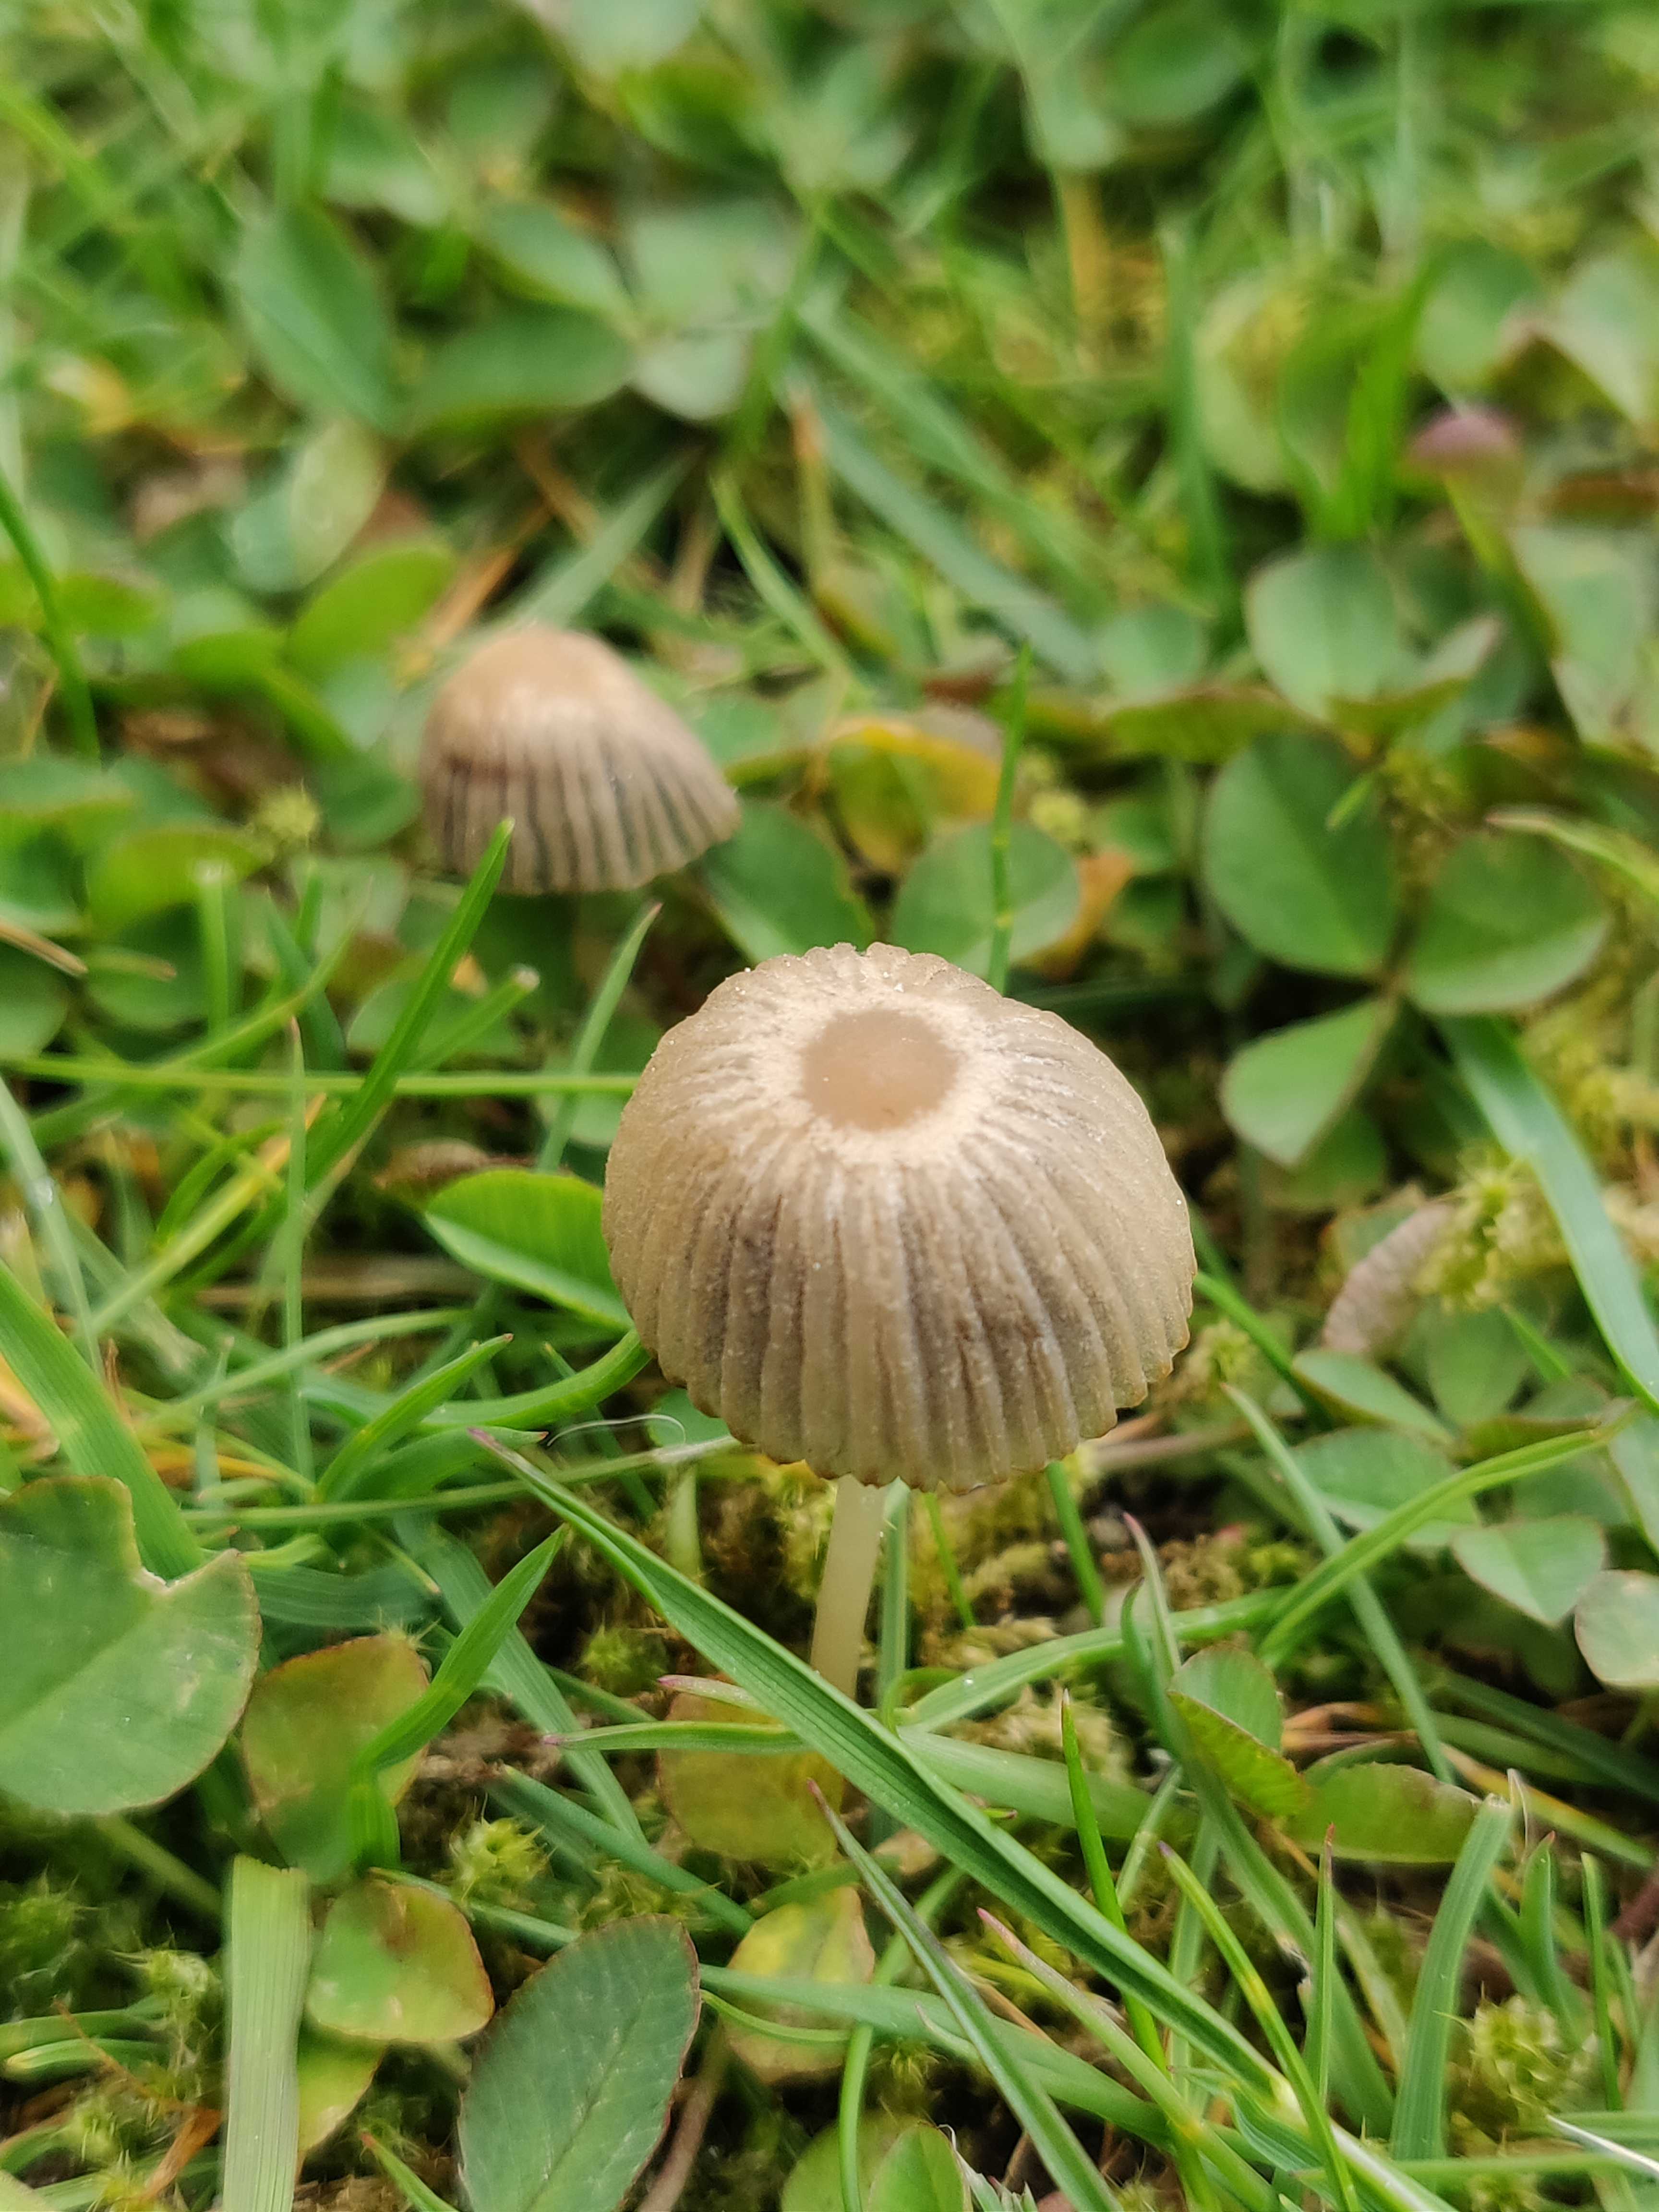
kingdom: Fungi
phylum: Basidiomycota
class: Agaricomycetes
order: Agaricales
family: Psathyrellaceae
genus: Parasola
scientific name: Parasola
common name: hjulhat
